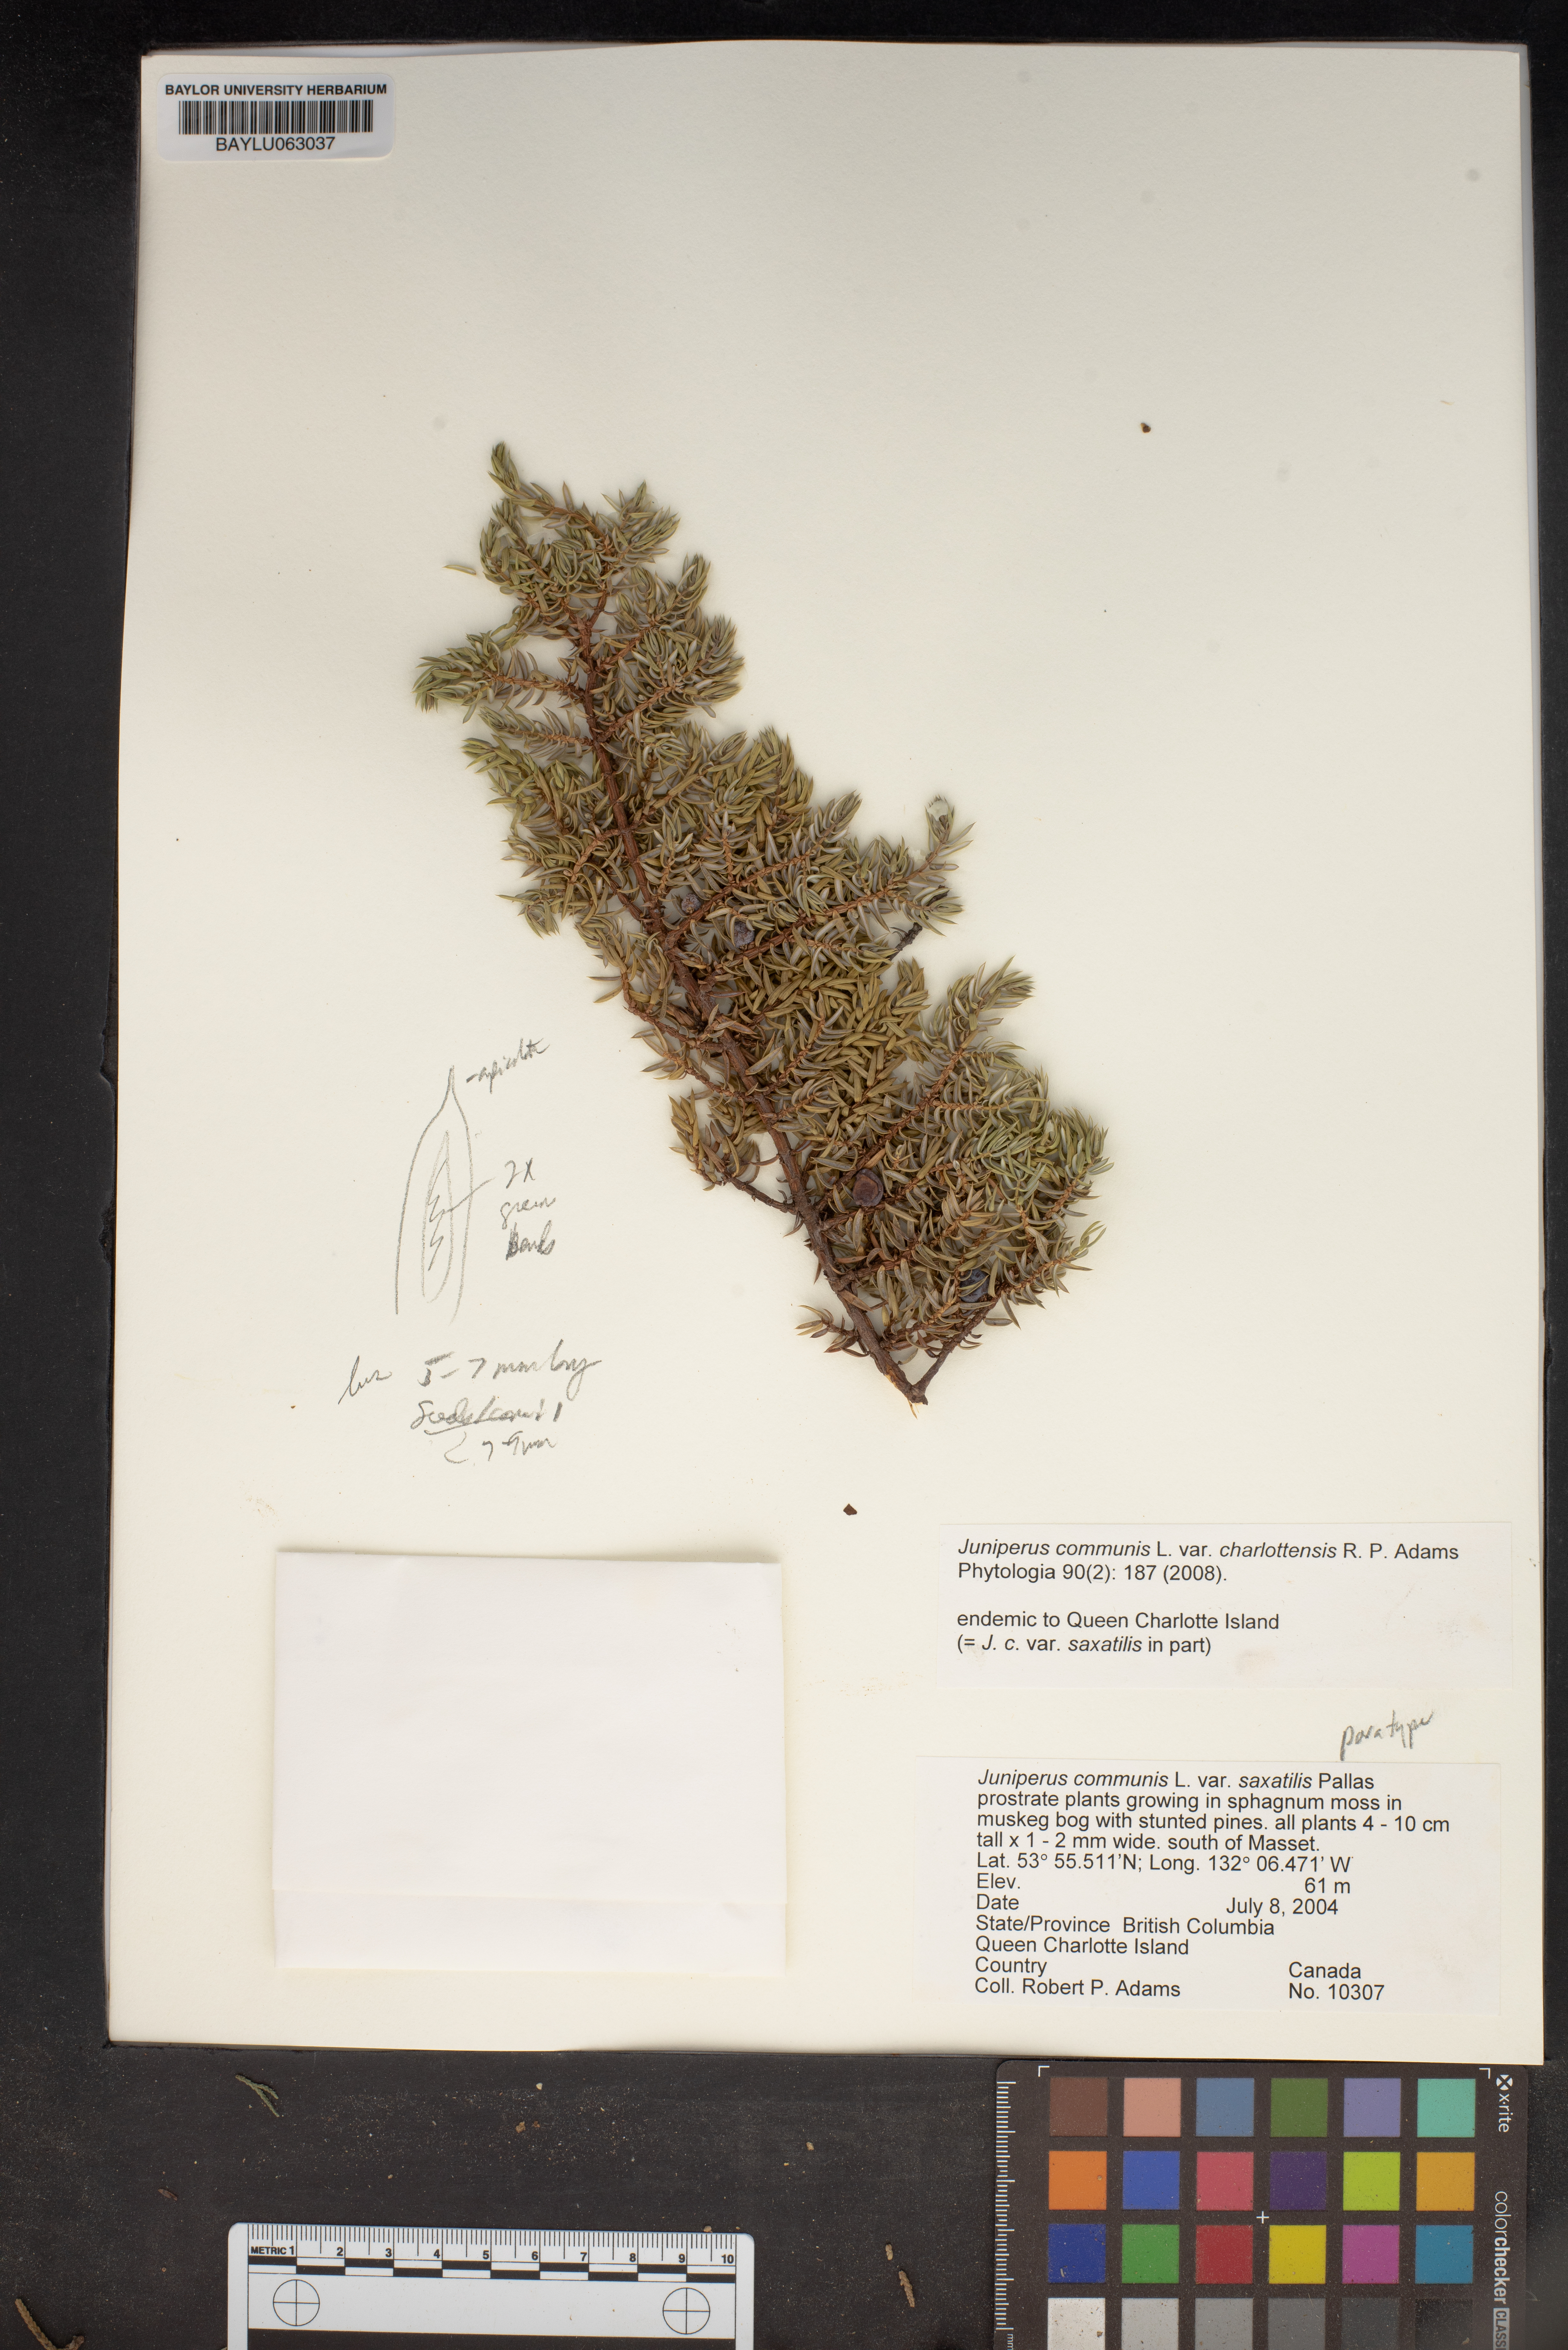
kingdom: Plantae
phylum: Tracheophyta
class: Pinopsida
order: Pinales
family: Cupressaceae
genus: Juniperus
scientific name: Juniperus communis
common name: Common juniper
